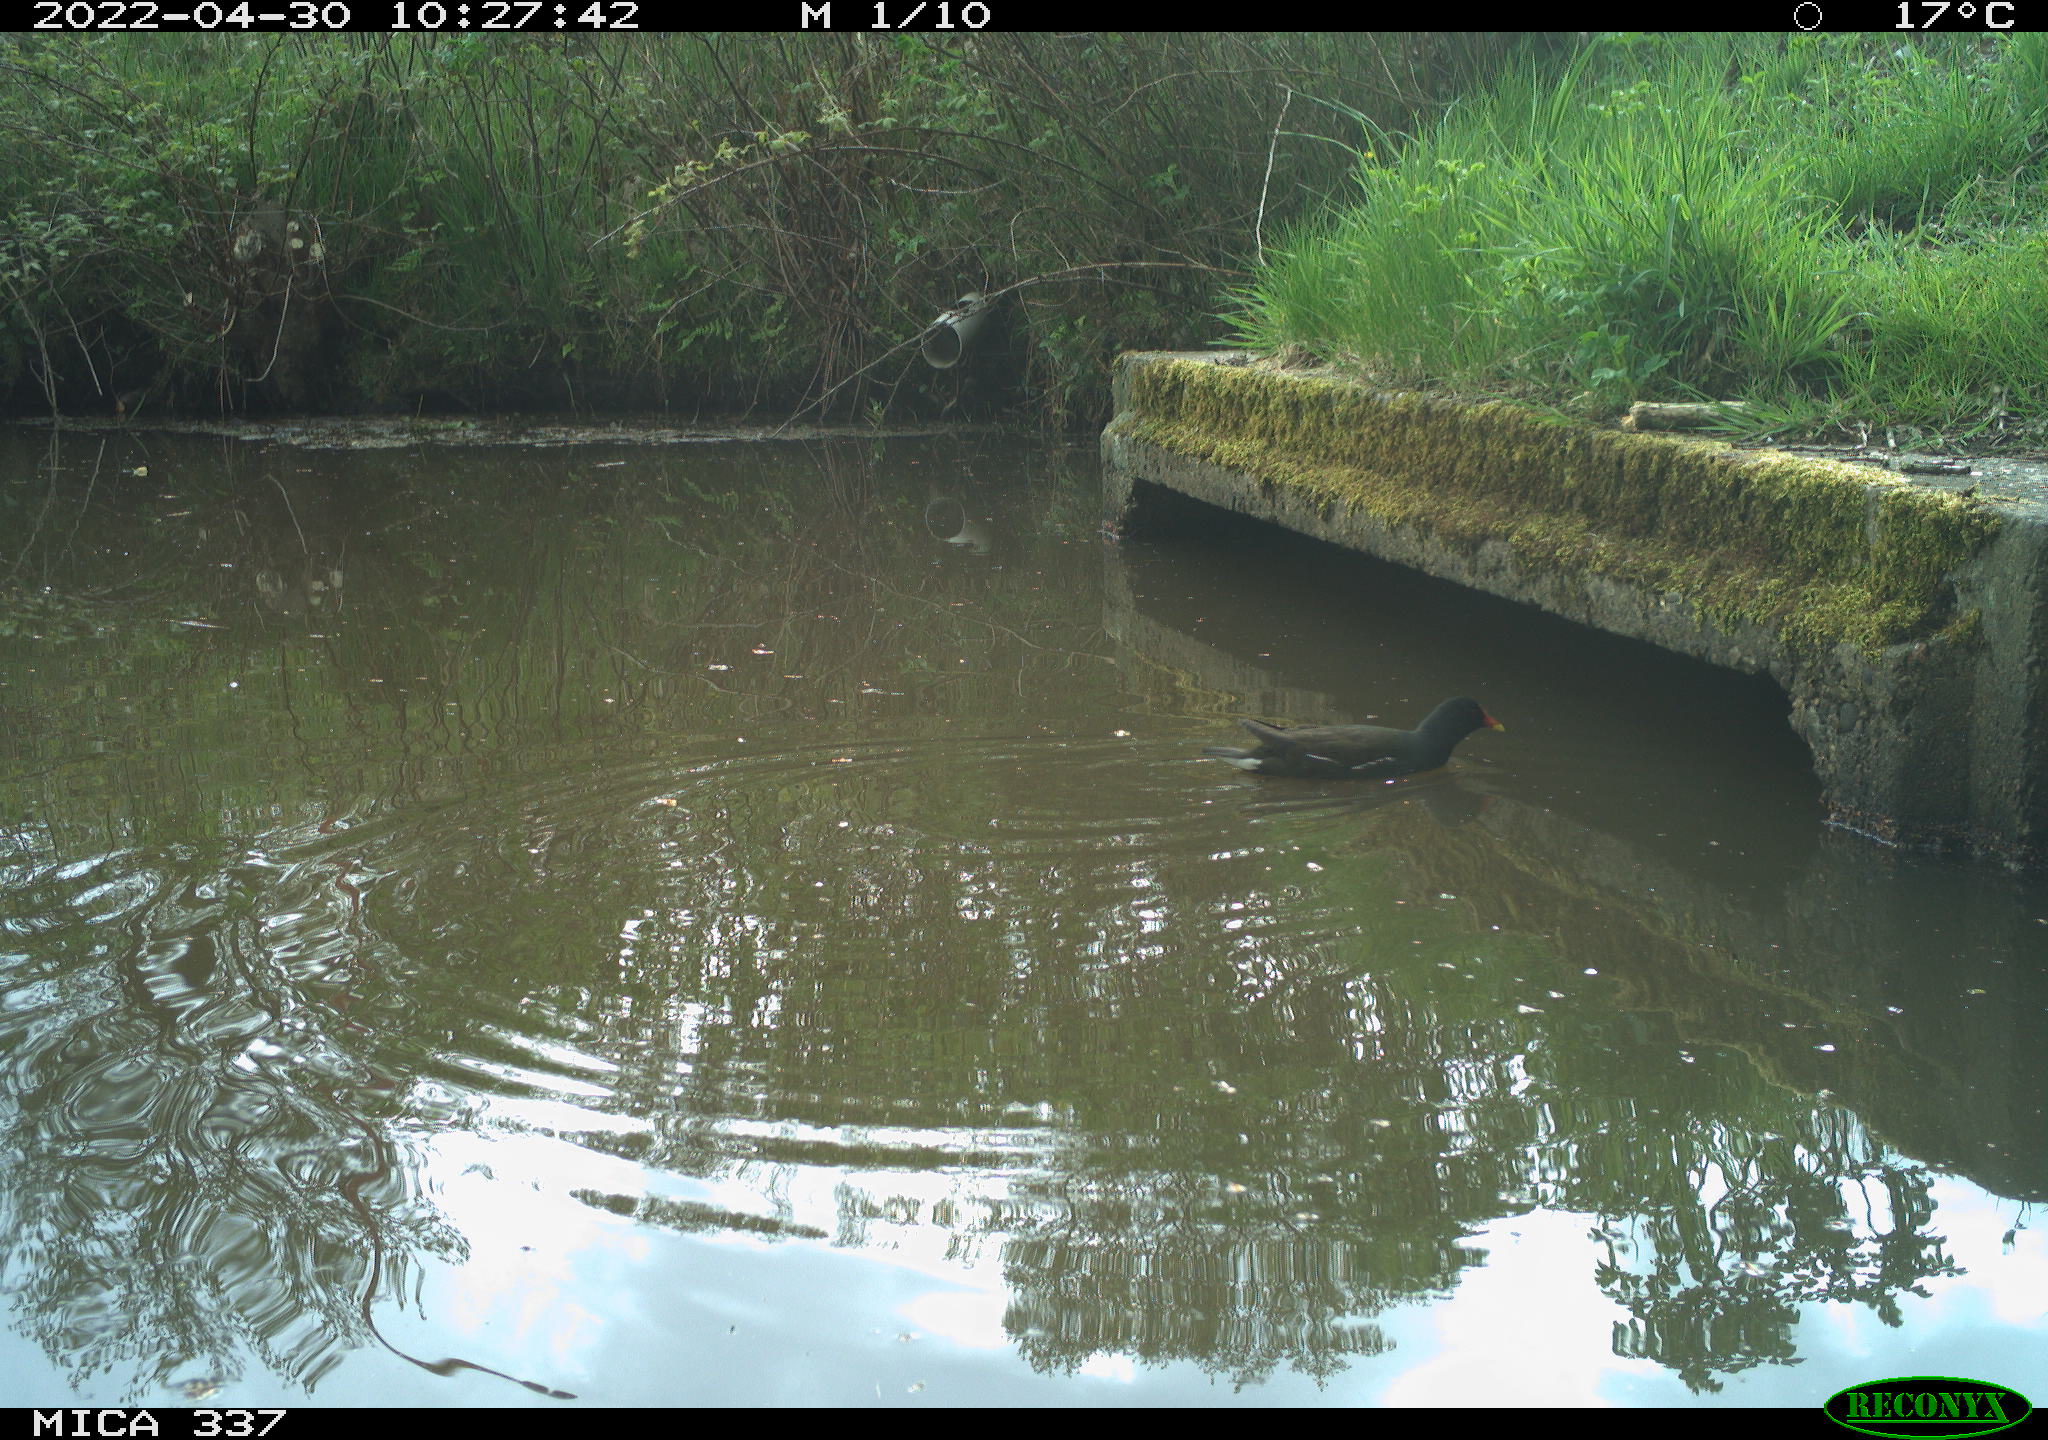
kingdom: Animalia
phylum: Chordata
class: Aves
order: Gruiformes
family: Rallidae
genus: Gallinula
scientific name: Gallinula chloropus
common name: Common moorhen
